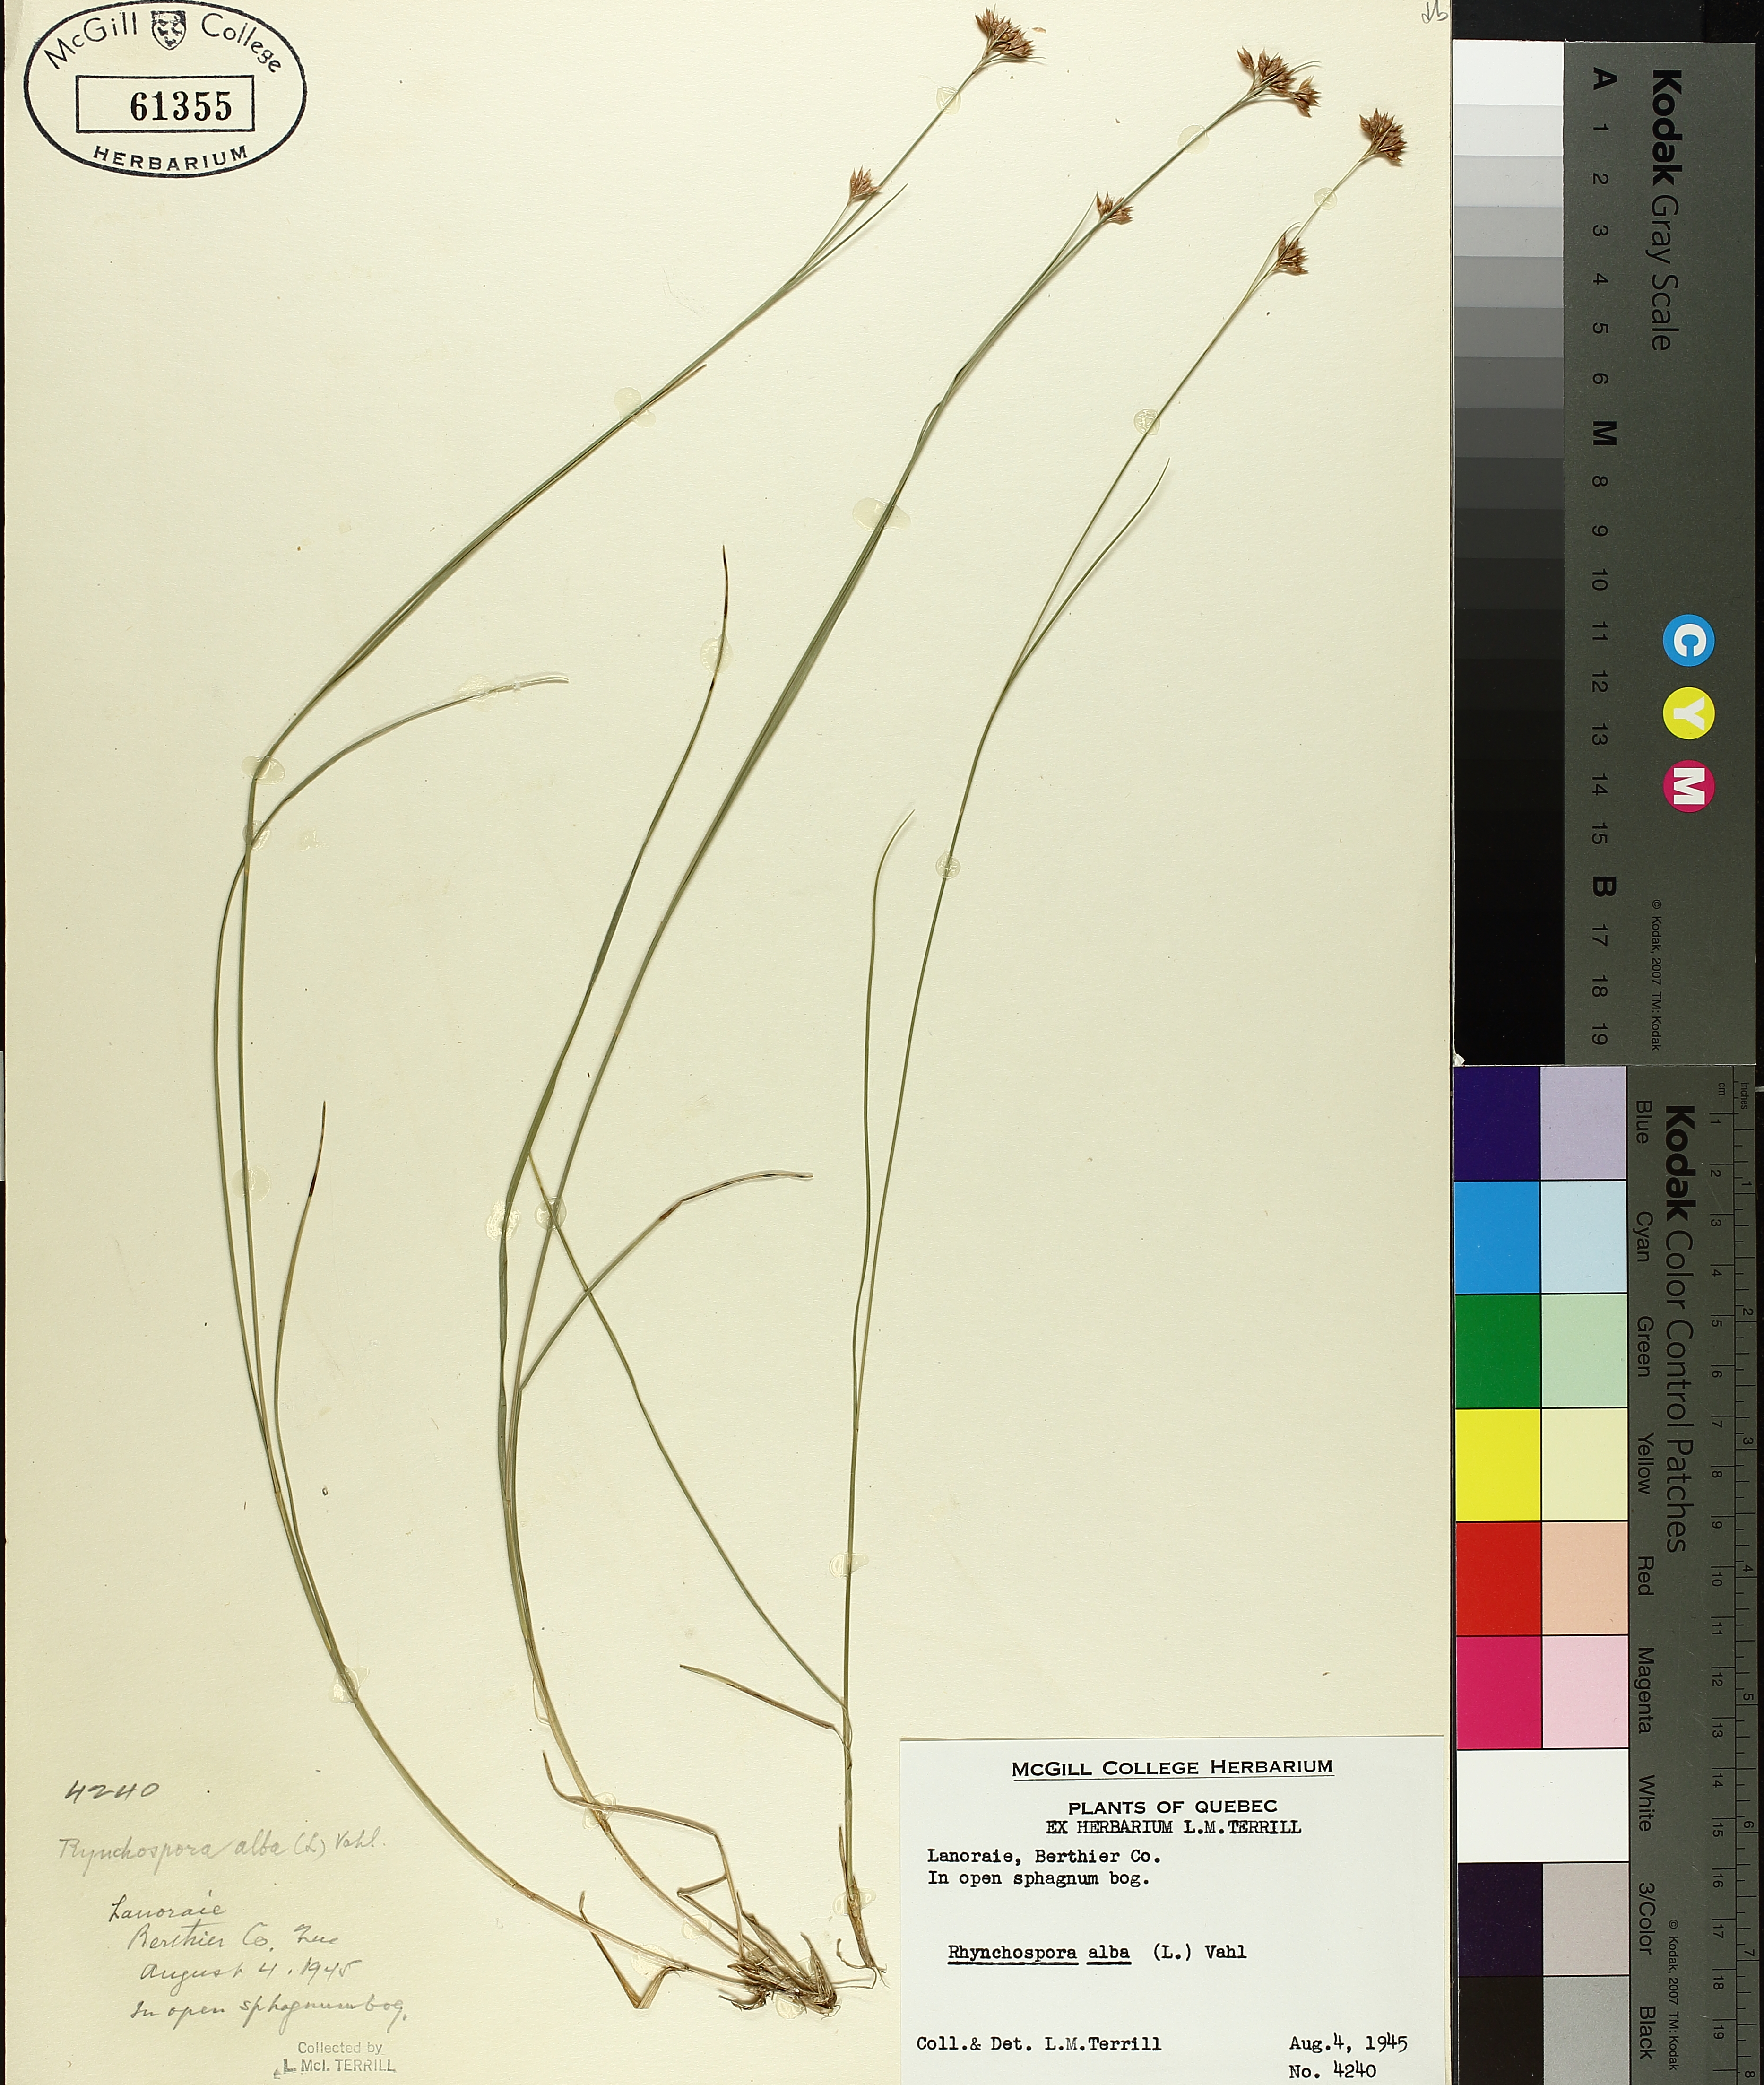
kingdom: Plantae
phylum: Tracheophyta
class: Liliopsida
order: Poales
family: Cyperaceae
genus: Rhynchospora
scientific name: Rhynchospora alba
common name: White beak-sedge
